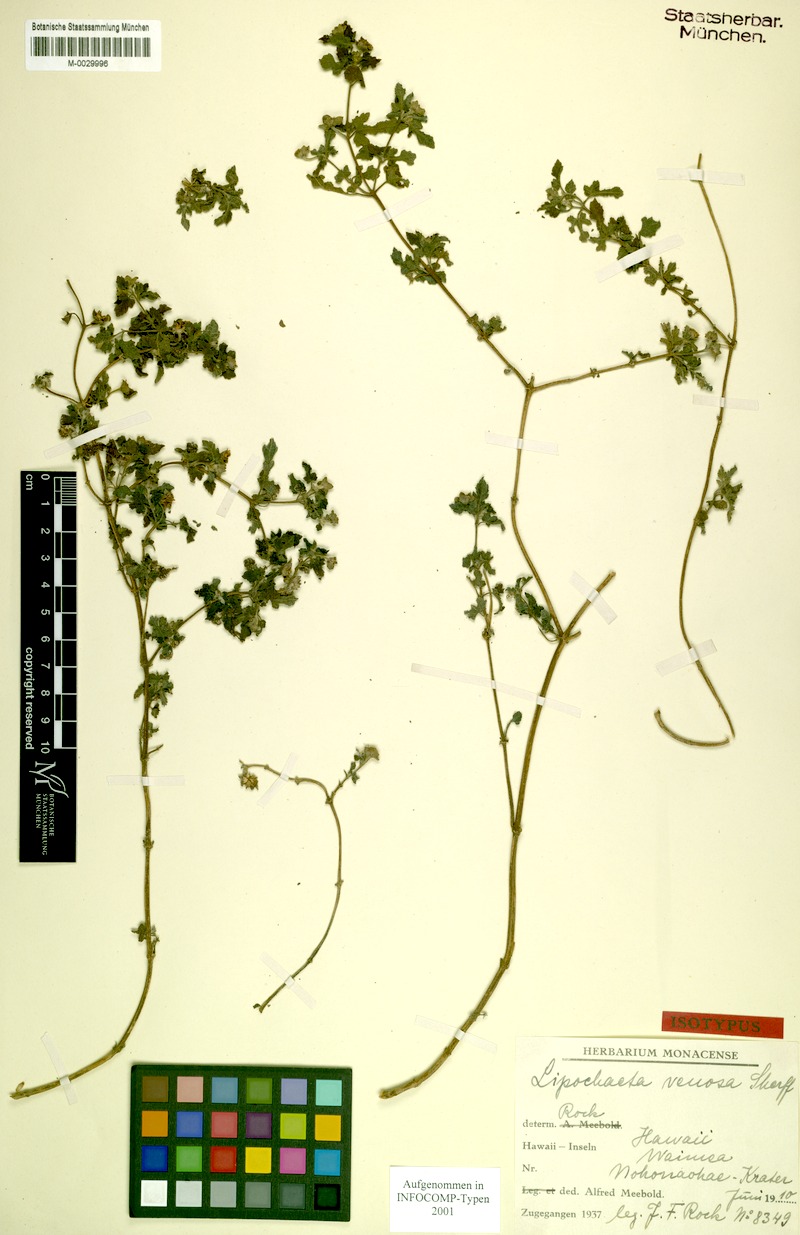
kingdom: Plantae
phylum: Tracheophyta
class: Magnoliopsida
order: Asterales
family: Asteraceae
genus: Lipochaeta
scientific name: Lipochaeta venosa
